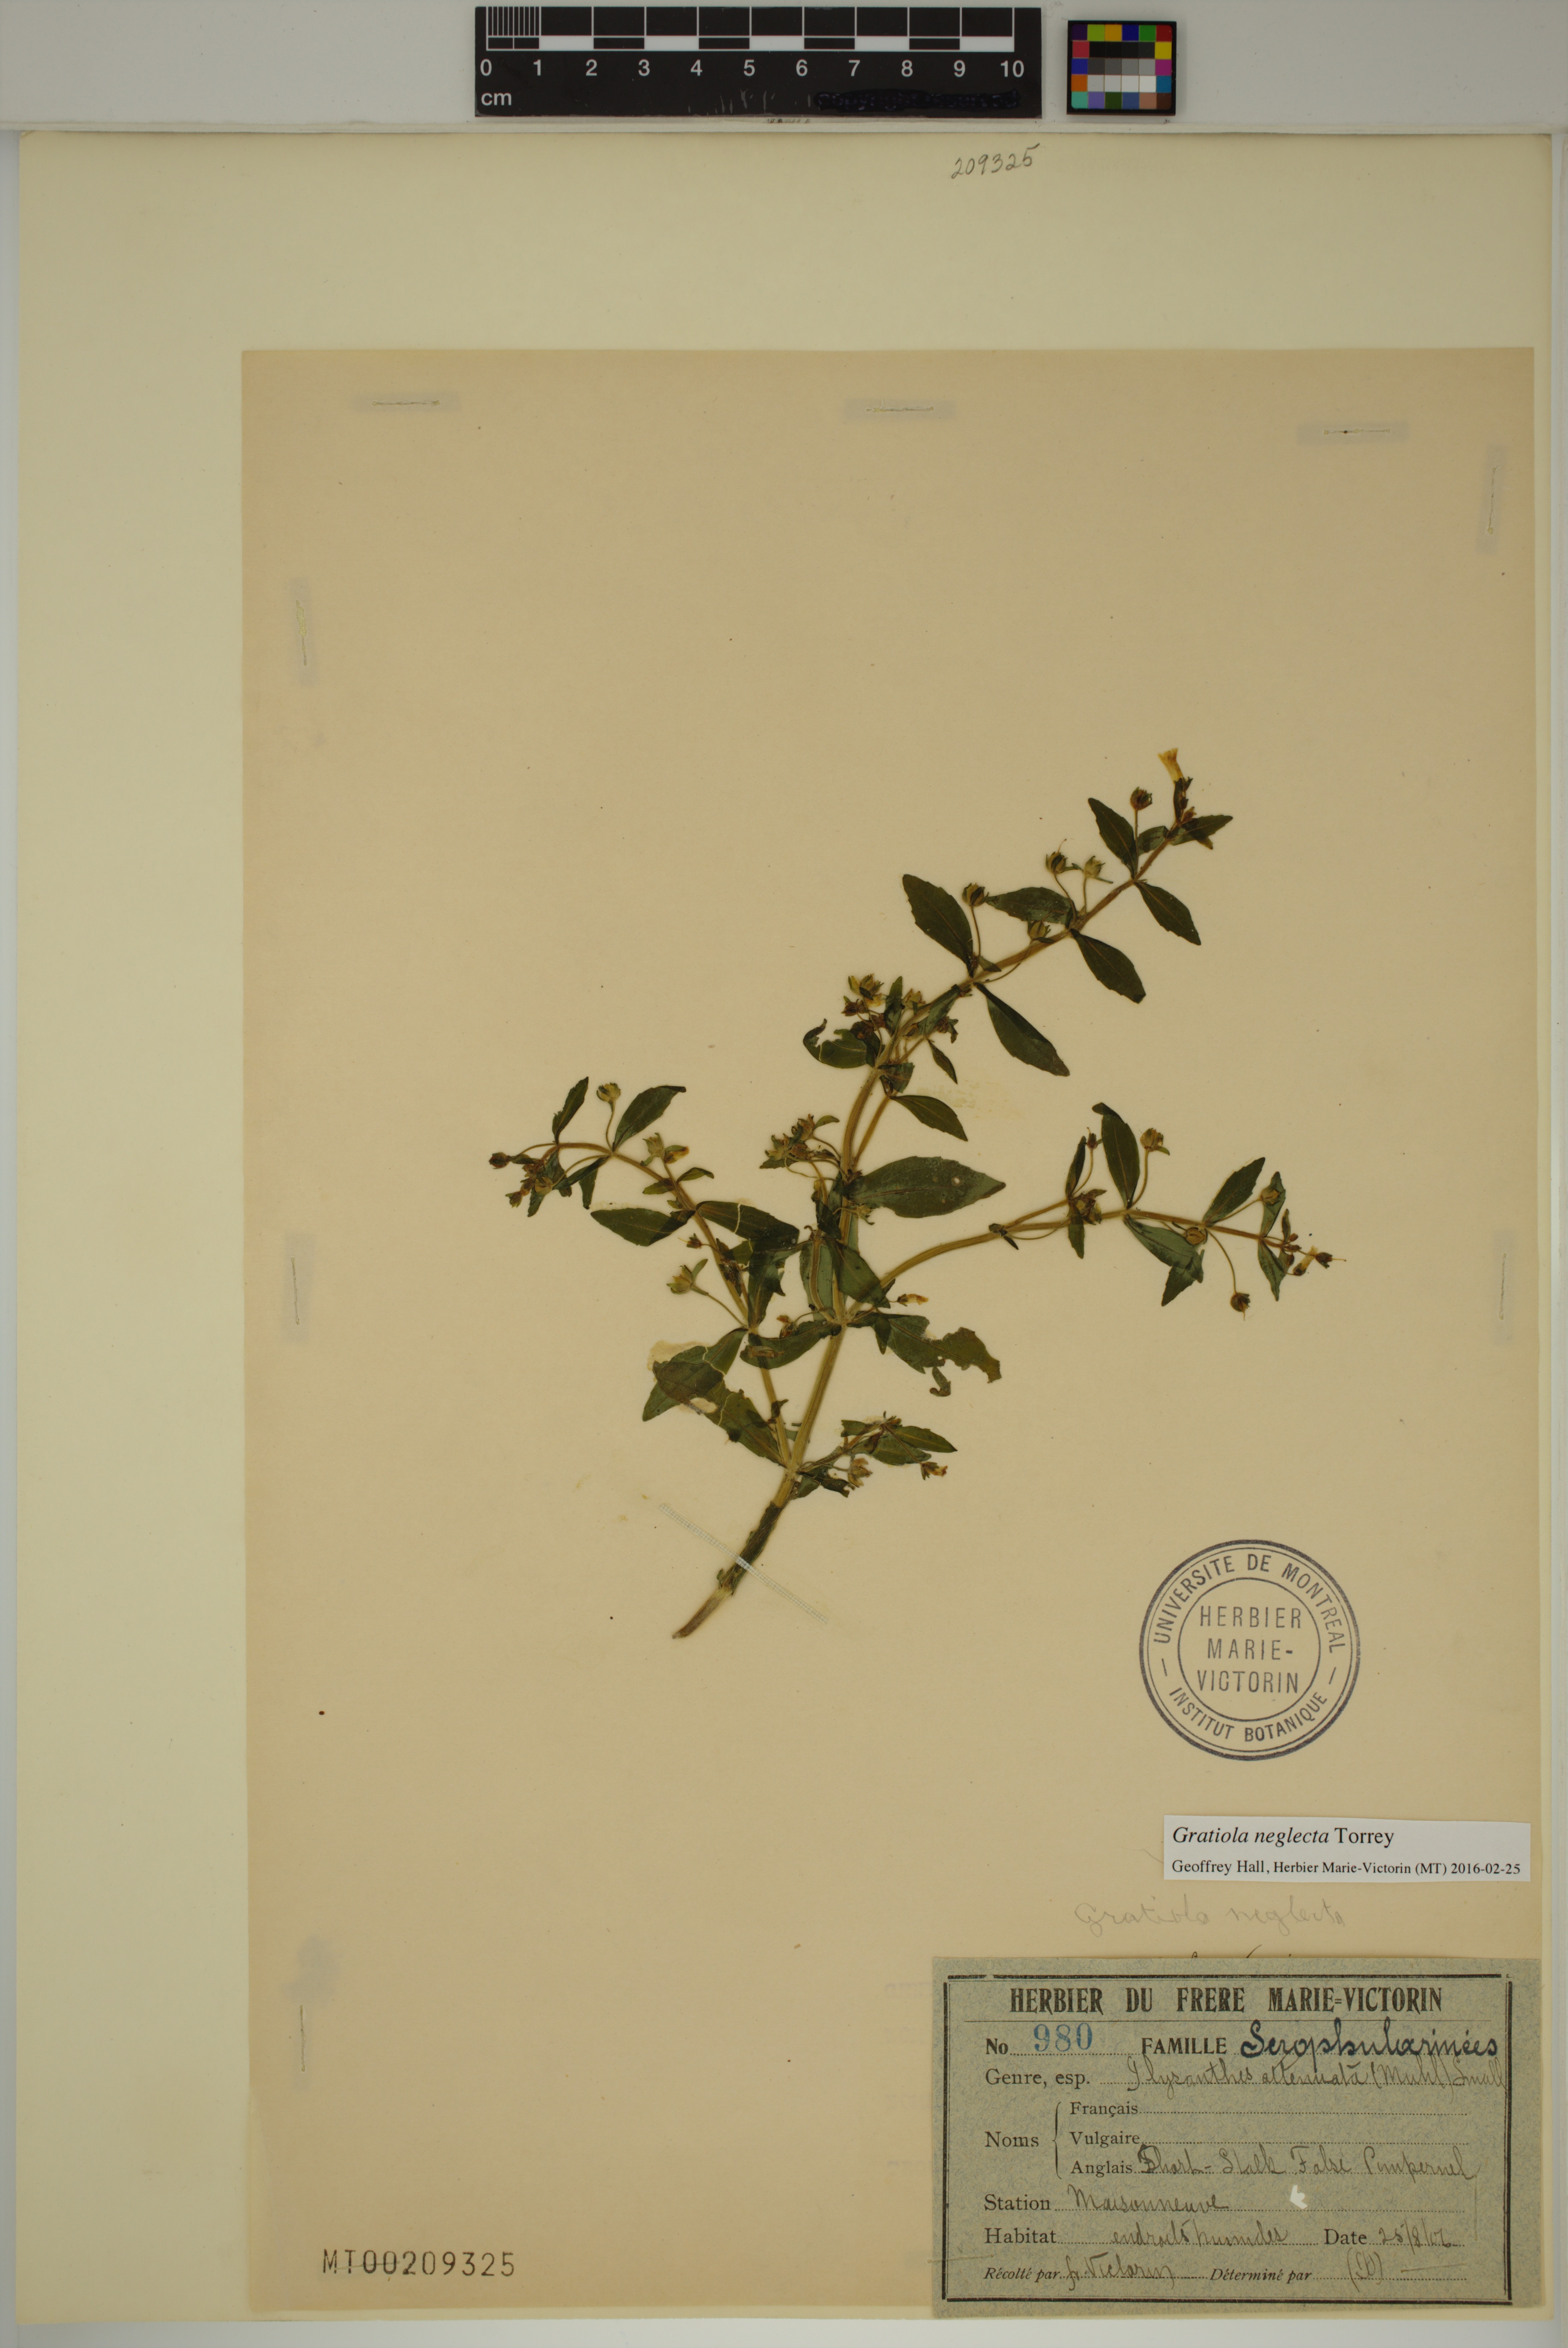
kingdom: Plantae
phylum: Tracheophyta
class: Magnoliopsida
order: Lamiales
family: Plantaginaceae
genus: Gratiola
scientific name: Gratiola neglecta
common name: American hedge-hyssop
